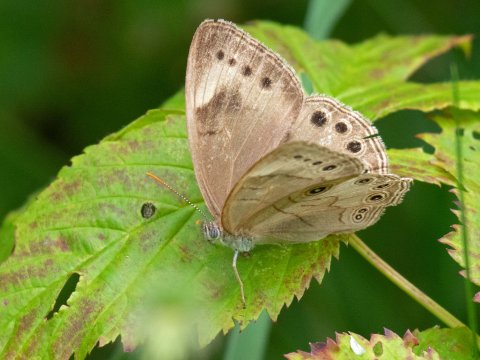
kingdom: Animalia
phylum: Arthropoda
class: Insecta
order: Lepidoptera
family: Nymphalidae
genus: Lethe
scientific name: Lethe eurydice
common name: Appalachian Eyed Brown
